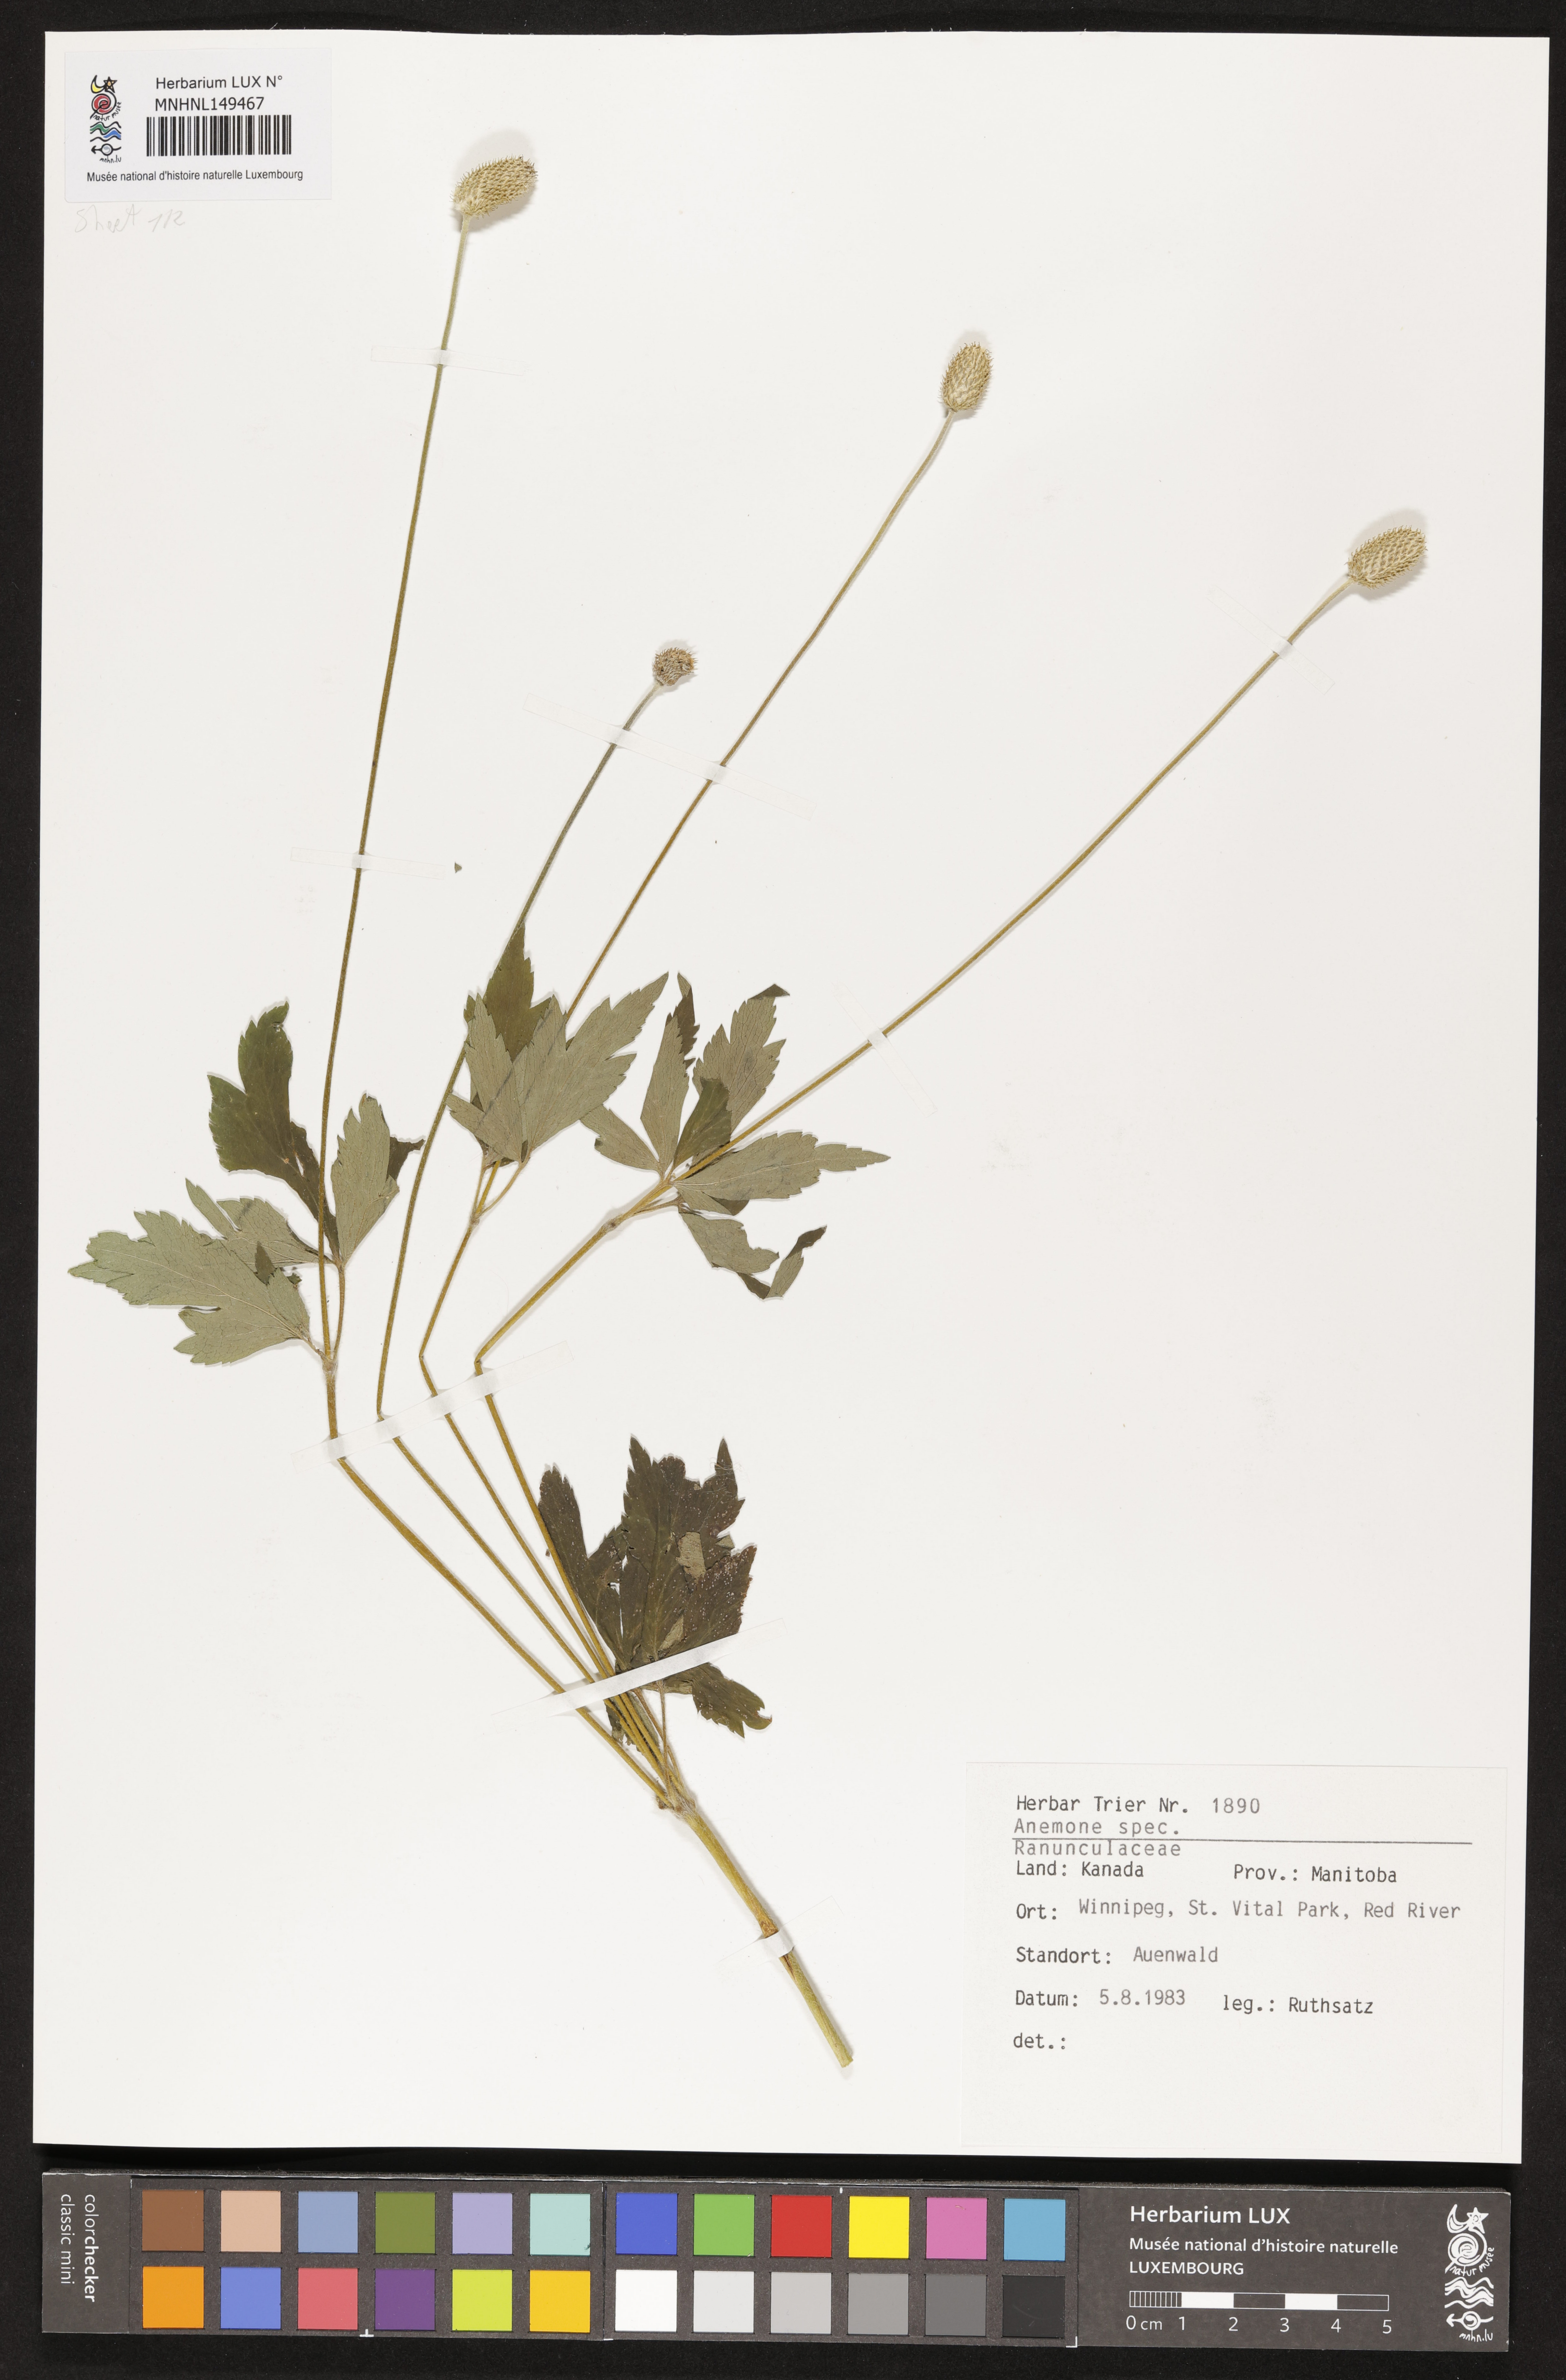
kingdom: Plantae
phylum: Tracheophyta
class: Magnoliopsida
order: Ranunculales
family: Ranunculaceae
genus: Anemone
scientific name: Anemone
